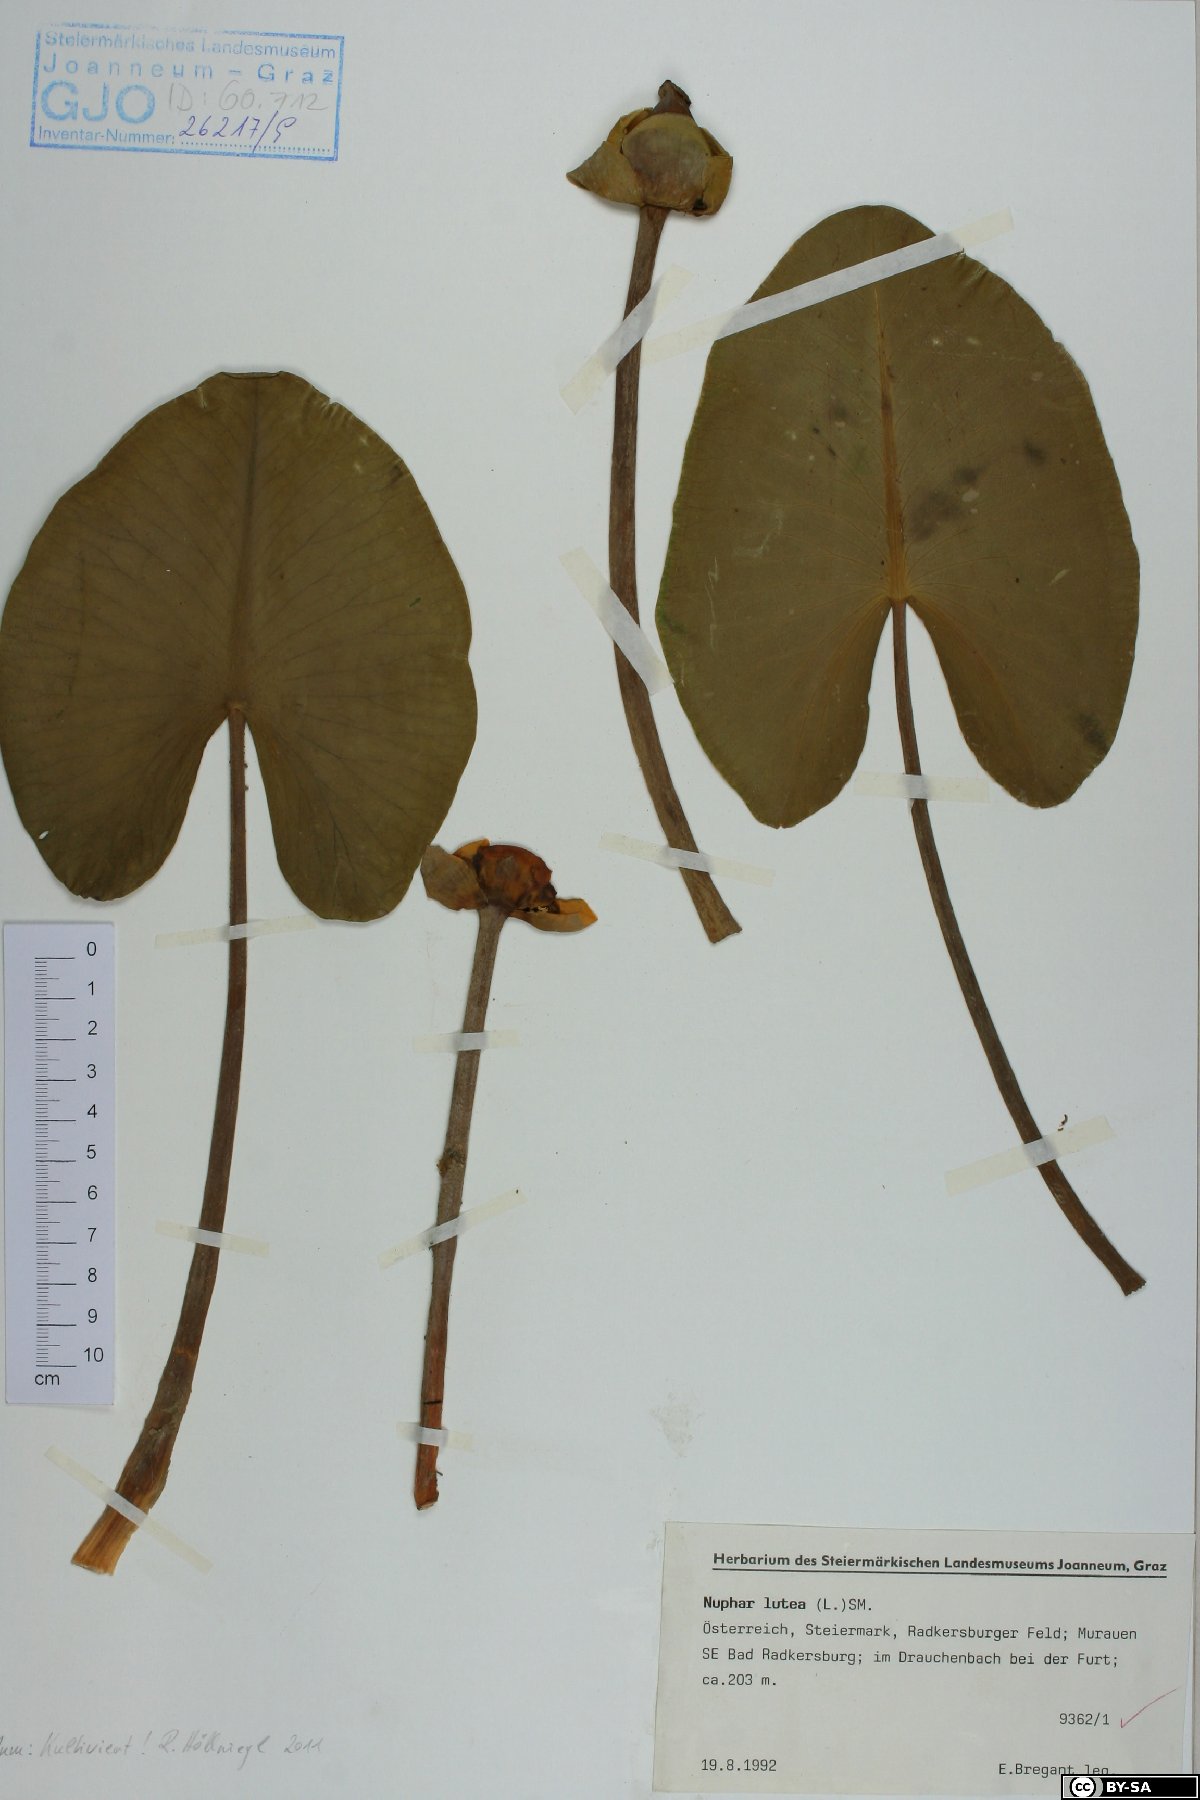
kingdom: Plantae
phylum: Tracheophyta
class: Magnoliopsida
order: Nymphaeales
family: Nymphaeaceae
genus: Nuphar
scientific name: Nuphar lutea
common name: Yellow water-lily
